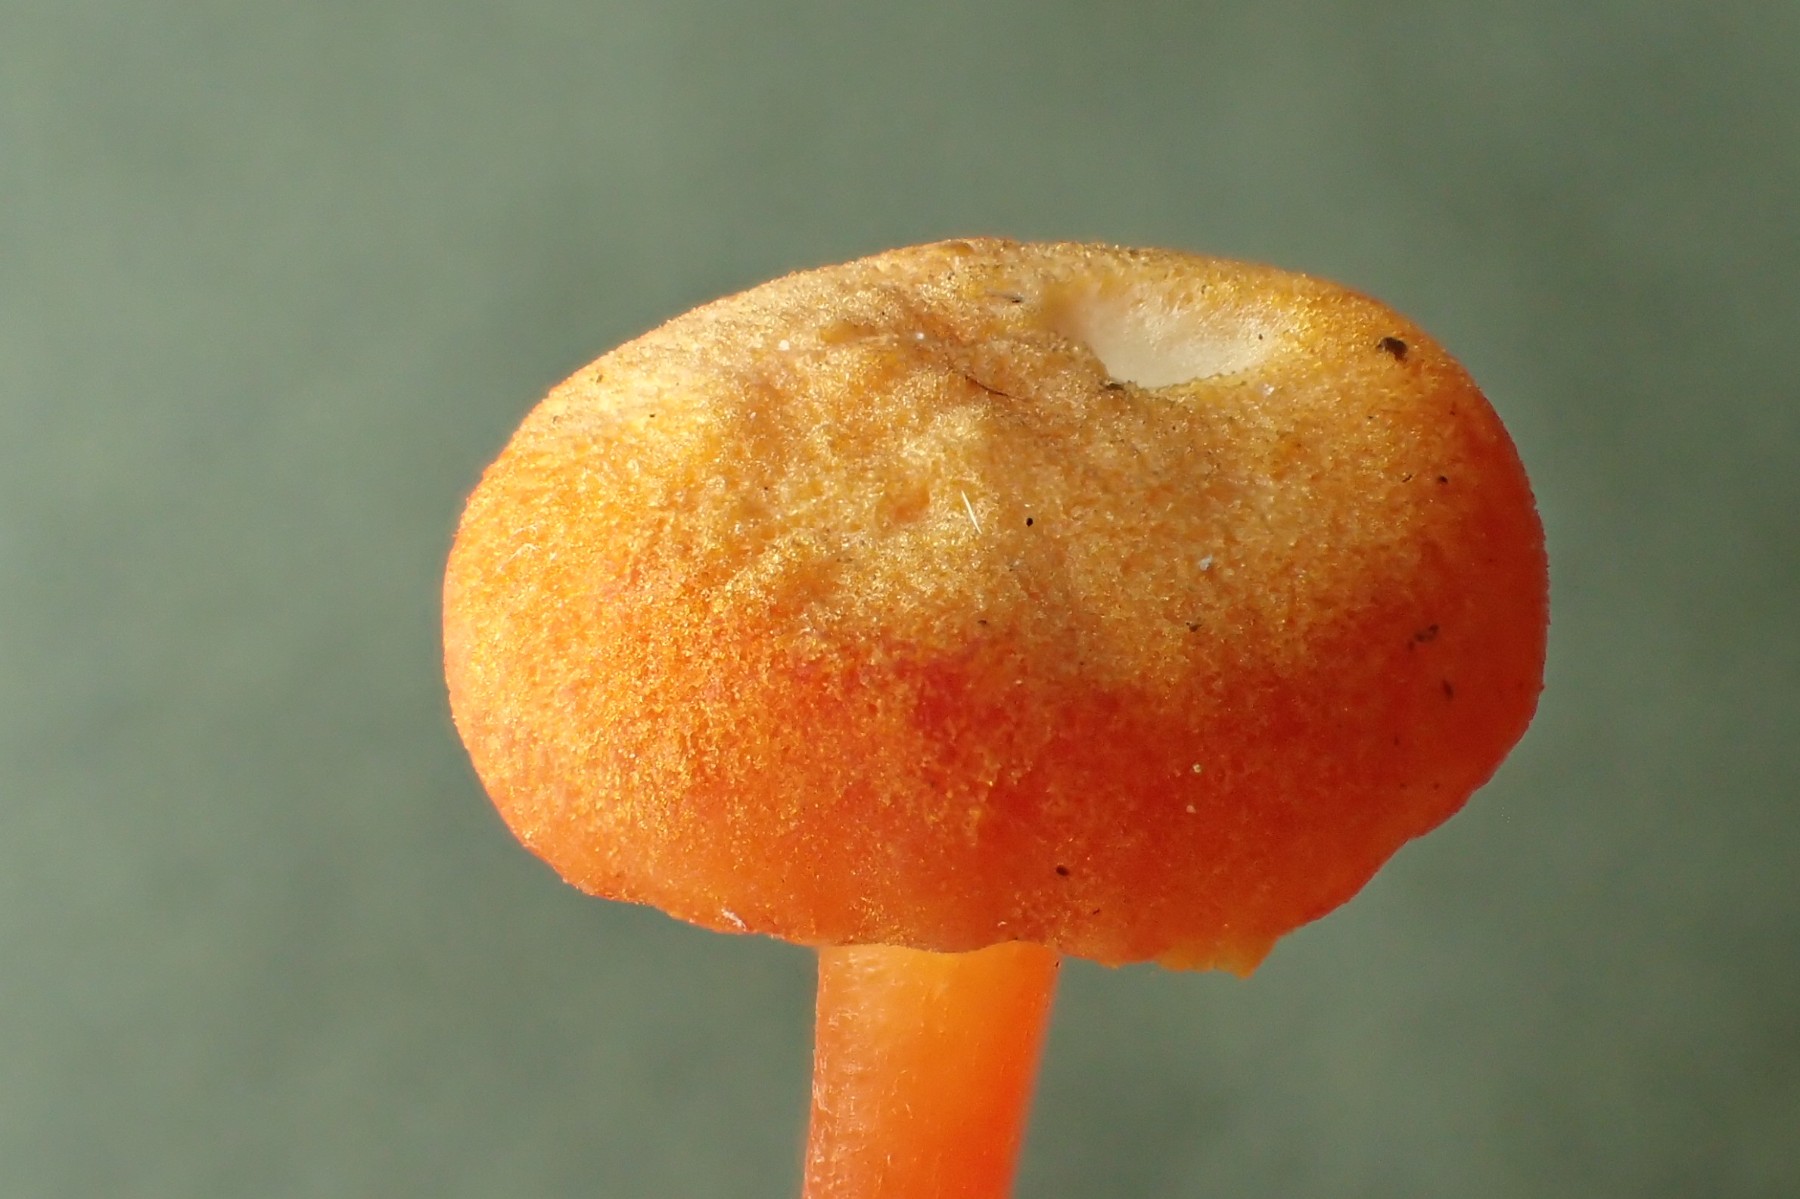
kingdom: Fungi
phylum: Basidiomycota
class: Agaricomycetes
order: Agaricales
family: Hygrophoraceae
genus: Hygrocybe
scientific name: Hygrocybe cantharellus
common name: kantarel-vokshat
